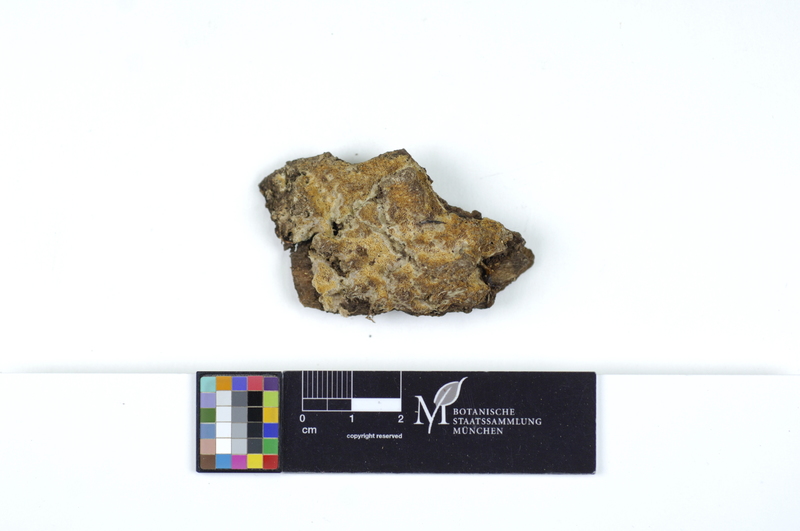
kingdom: Fungi
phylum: Basidiomycota
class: Agaricomycetes
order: Polyporales
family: Irpicaceae
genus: Ceriporia
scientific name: Ceriporia excelsa
